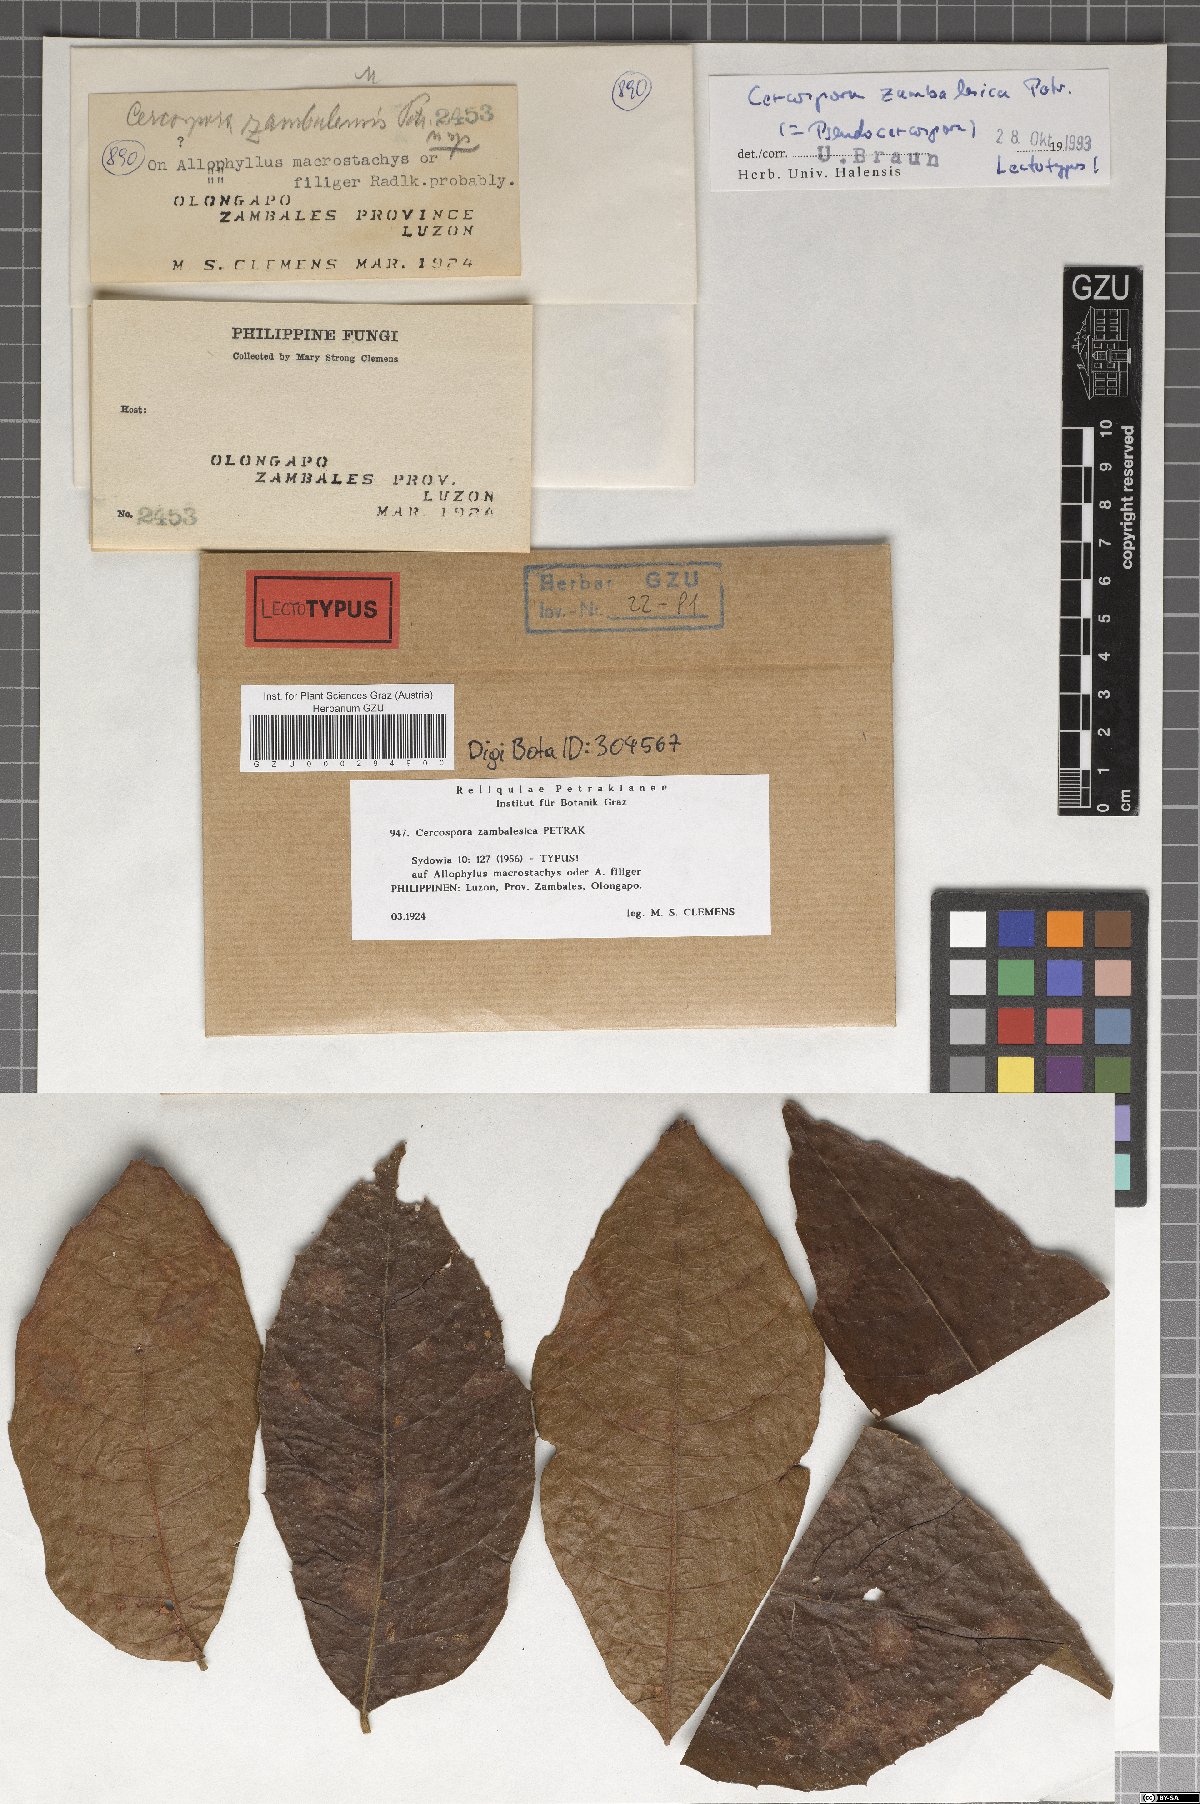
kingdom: Fungi
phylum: Ascomycota
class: Dothideomycetes
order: Mycosphaerellales
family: Mycosphaerellaceae
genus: Pseudocercospora
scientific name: Pseudocercospora zambalesica
